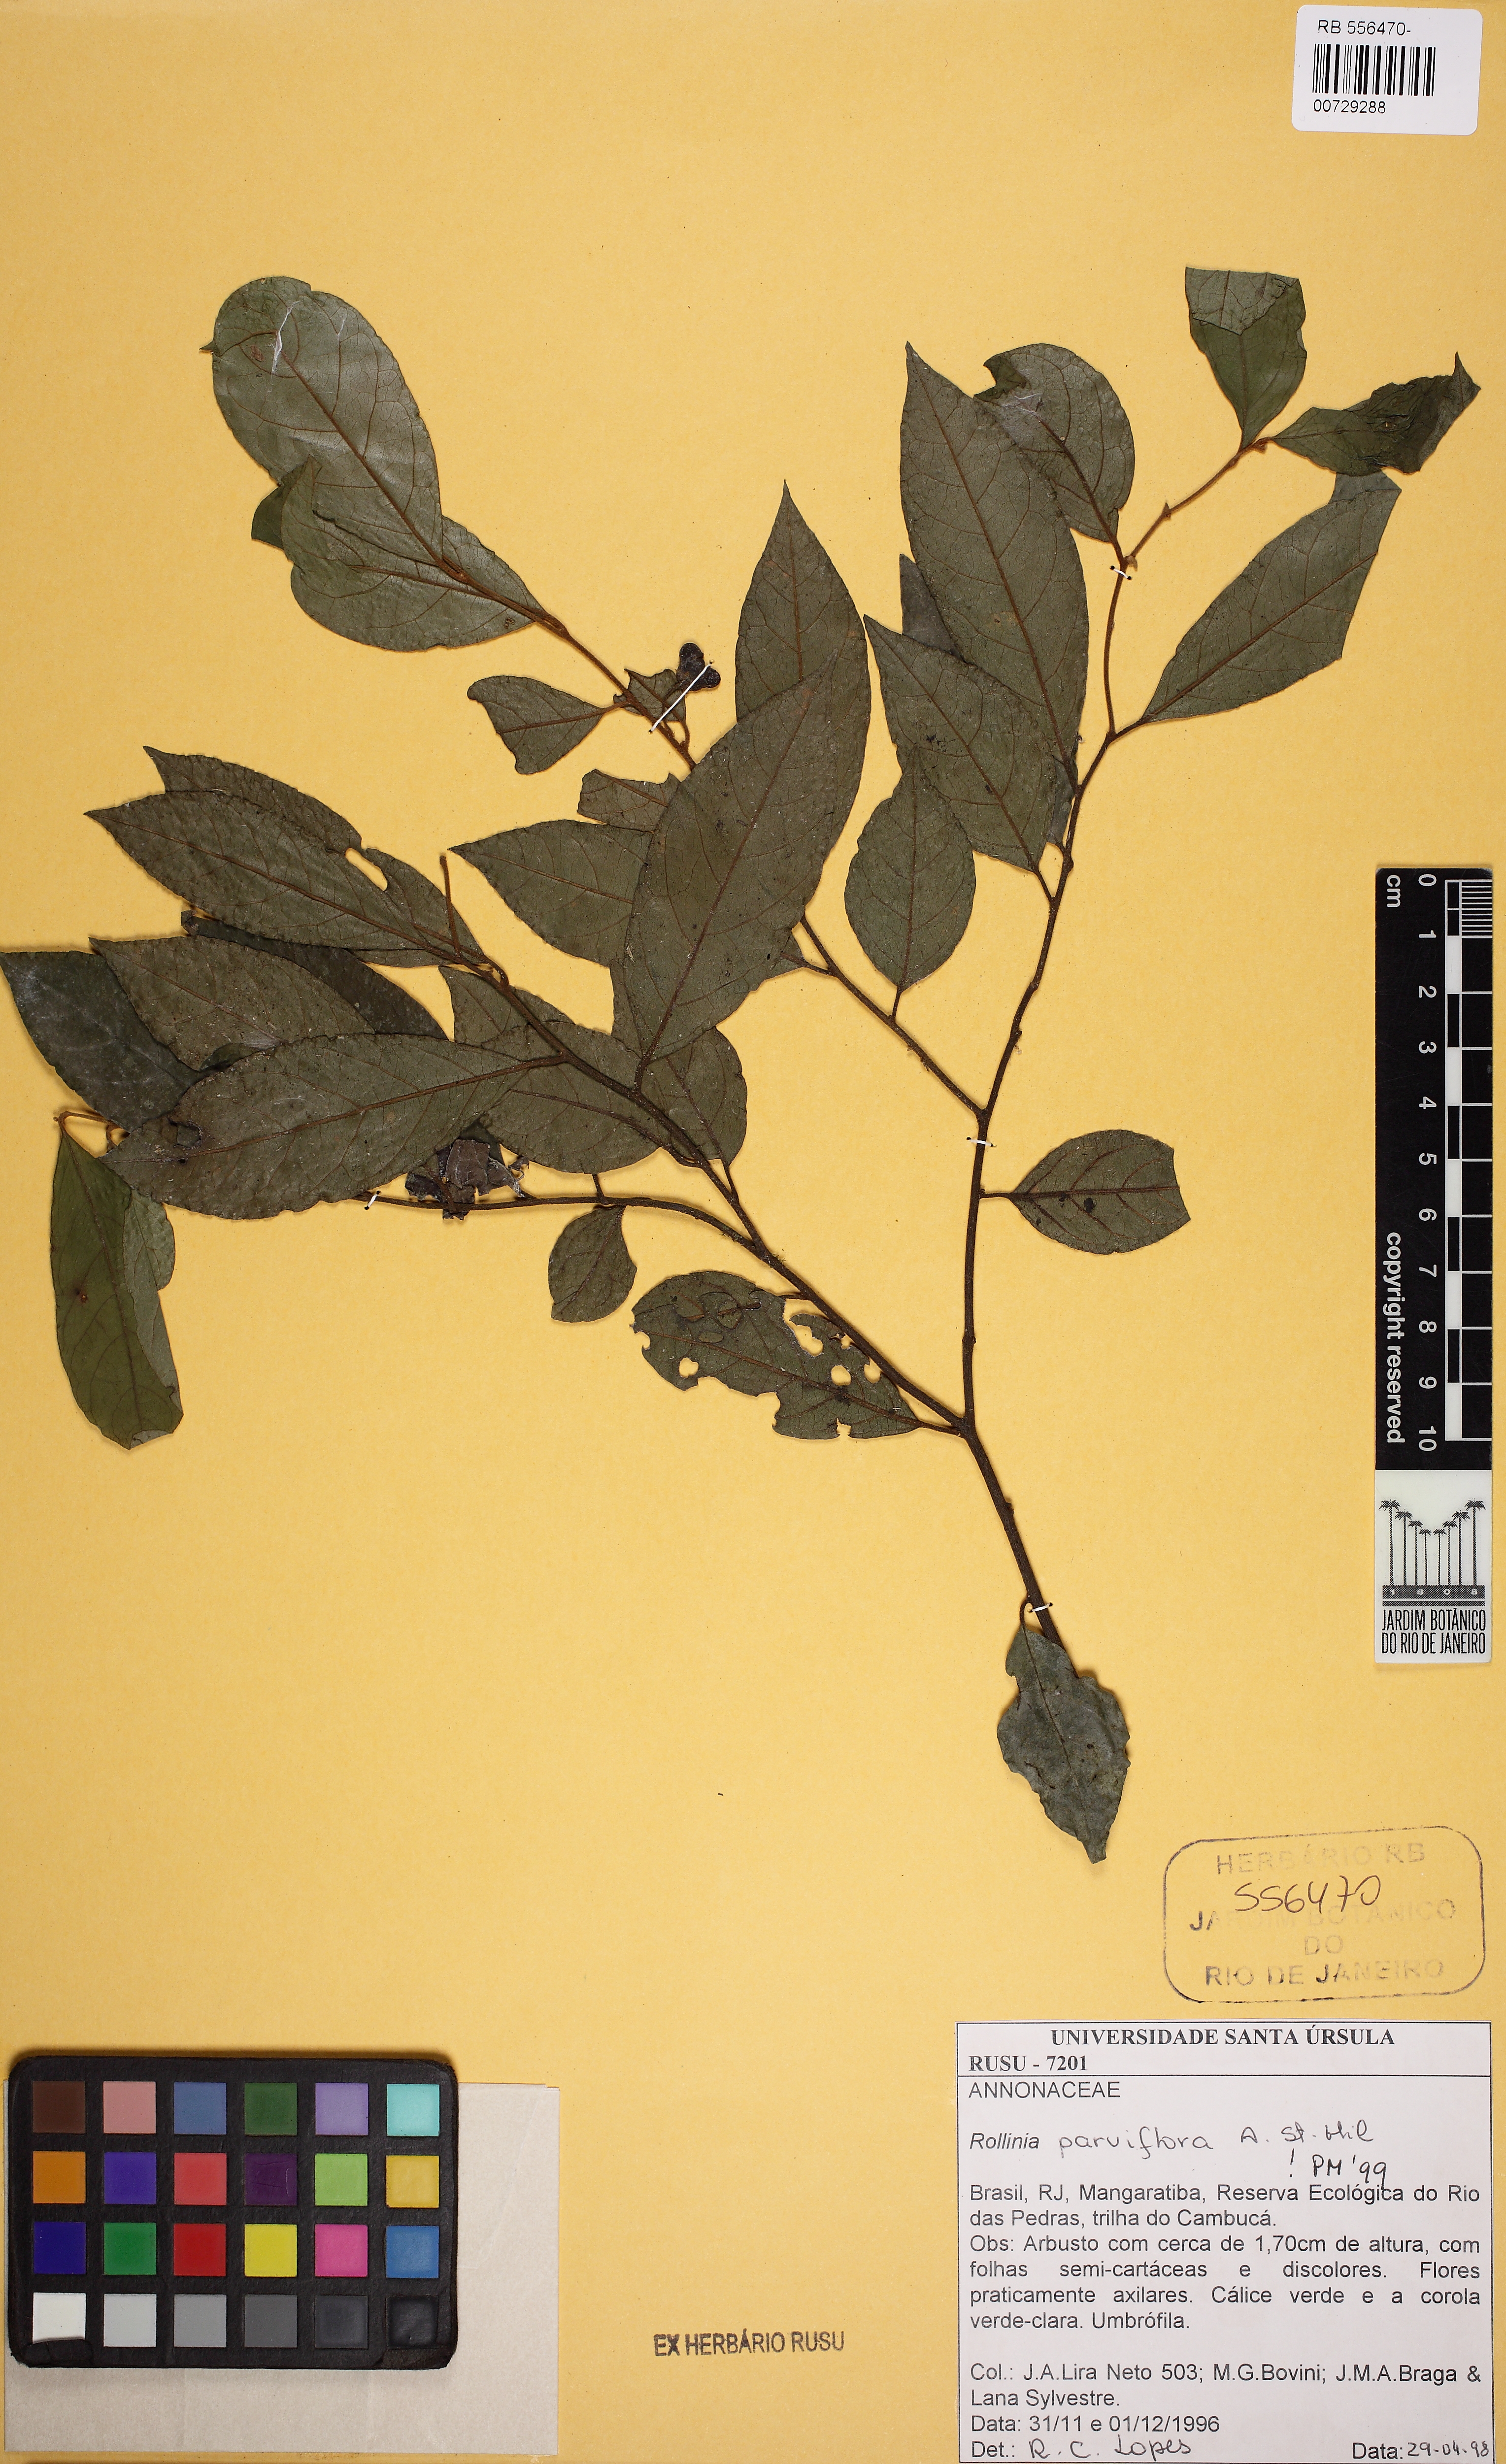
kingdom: Plantae
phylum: Tracheophyta
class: Magnoliopsida
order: Magnoliales
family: Annonaceae
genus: Annona
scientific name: Annona mucosa
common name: Sugar apple
